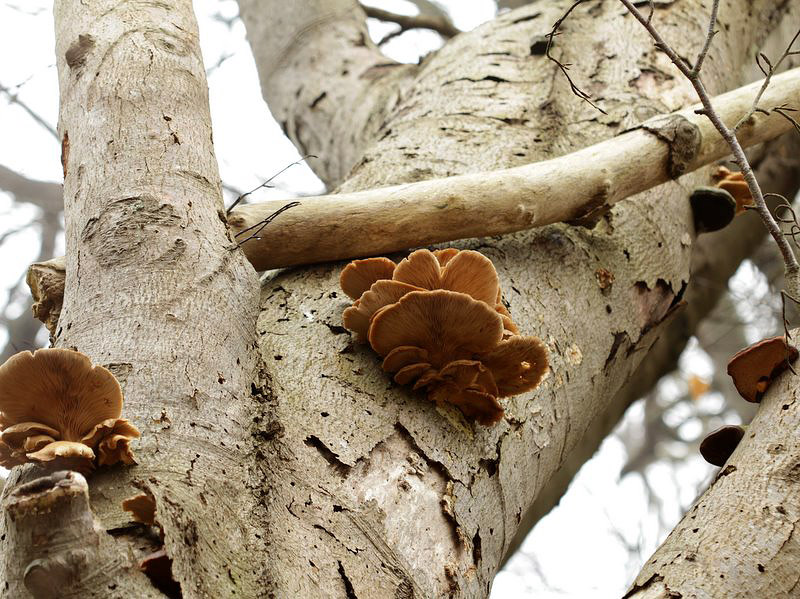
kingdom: Fungi
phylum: Basidiomycota
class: Agaricomycetes
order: Agaricales
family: Pleurotaceae
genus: Pleurotus
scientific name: Pleurotus ostreatus
